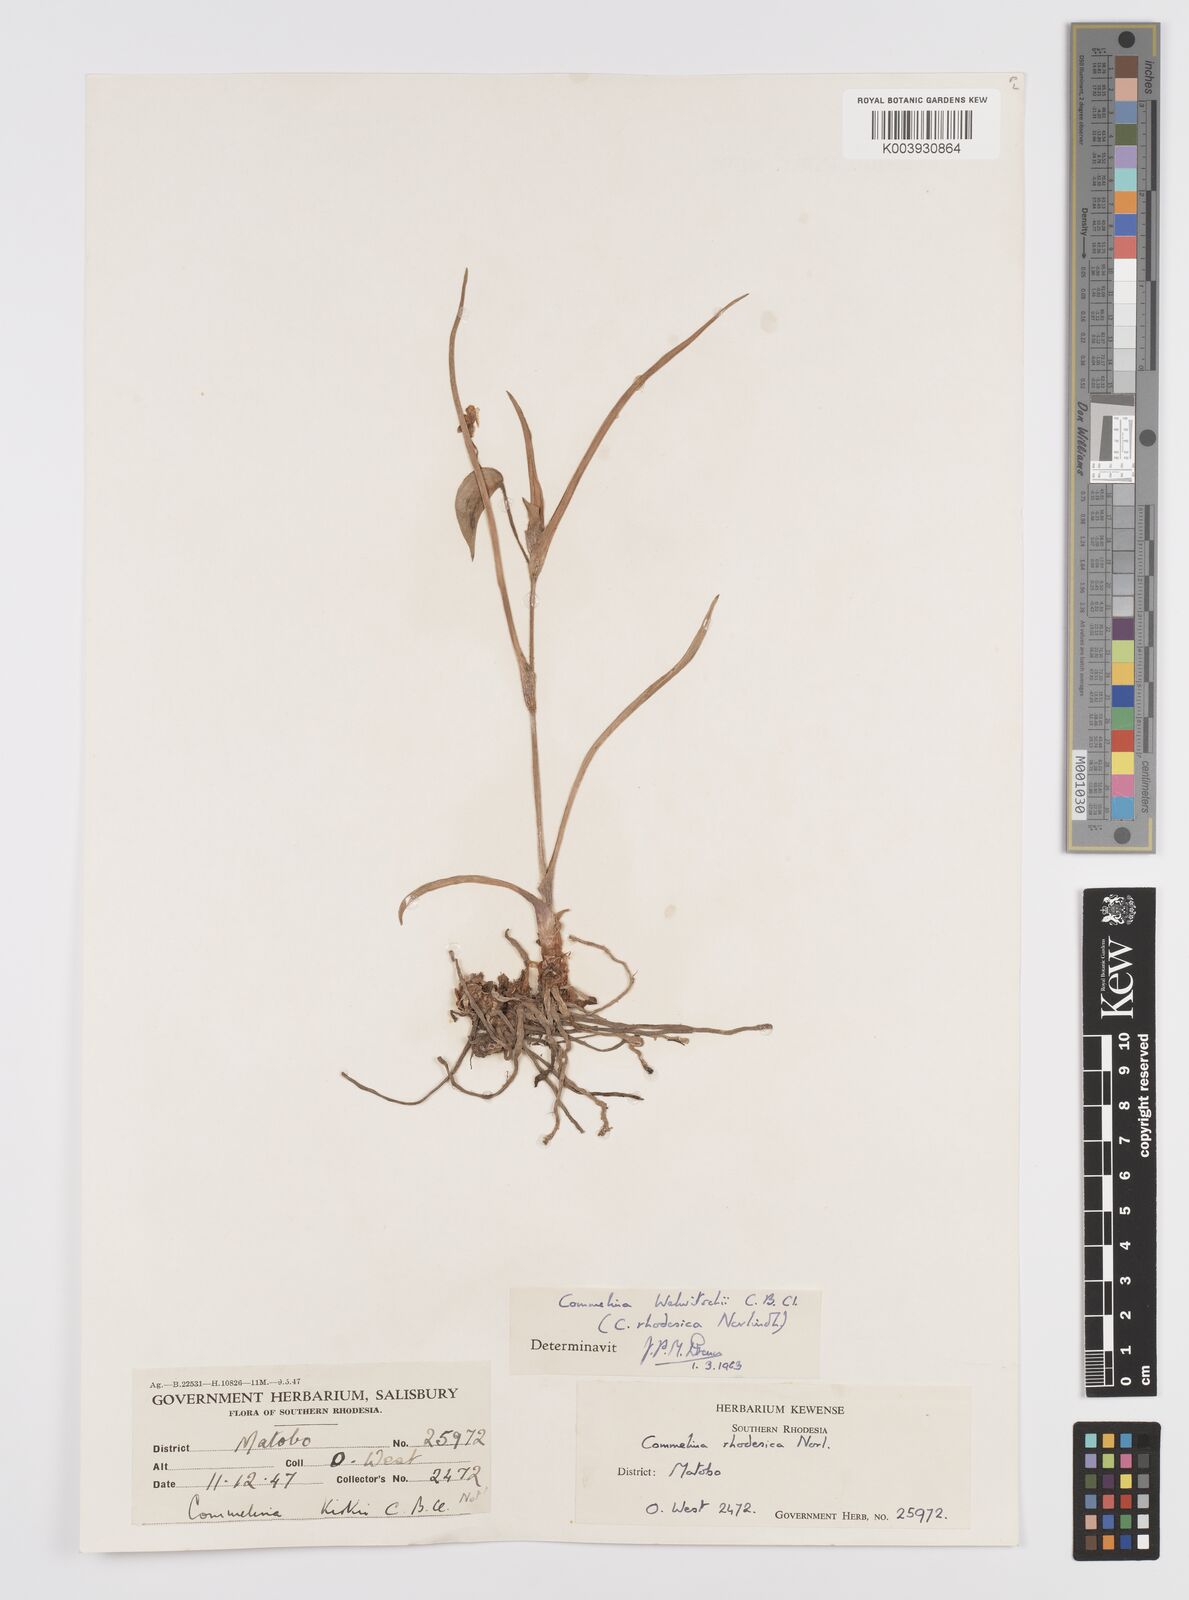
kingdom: Plantae
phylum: Tracheophyta
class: Liliopsida
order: Commelinales
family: Commelinaceae
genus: Commelina
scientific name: Commelina welwitschii
